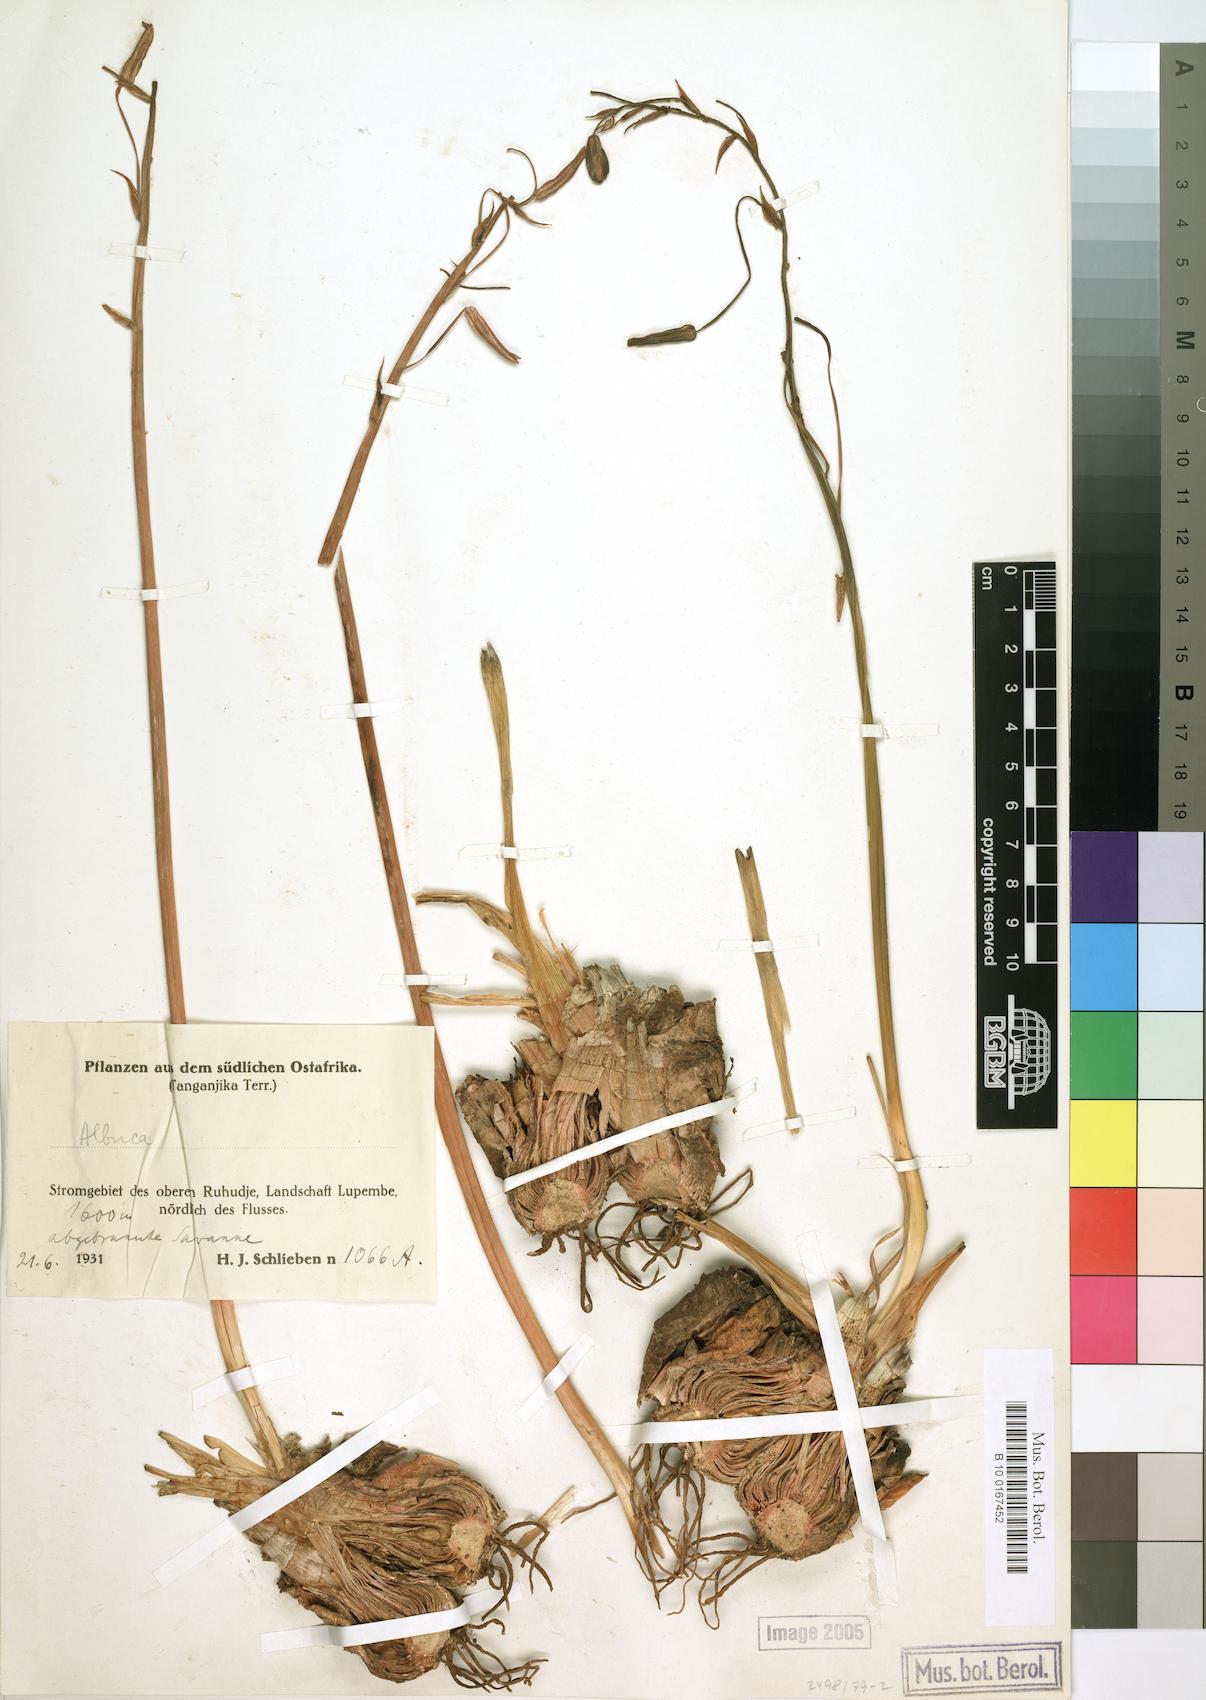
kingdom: Plantae
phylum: Tracheophyta
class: Liliopsida
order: Asparagales
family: Asparagaceae
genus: Albuca
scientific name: Albuca
